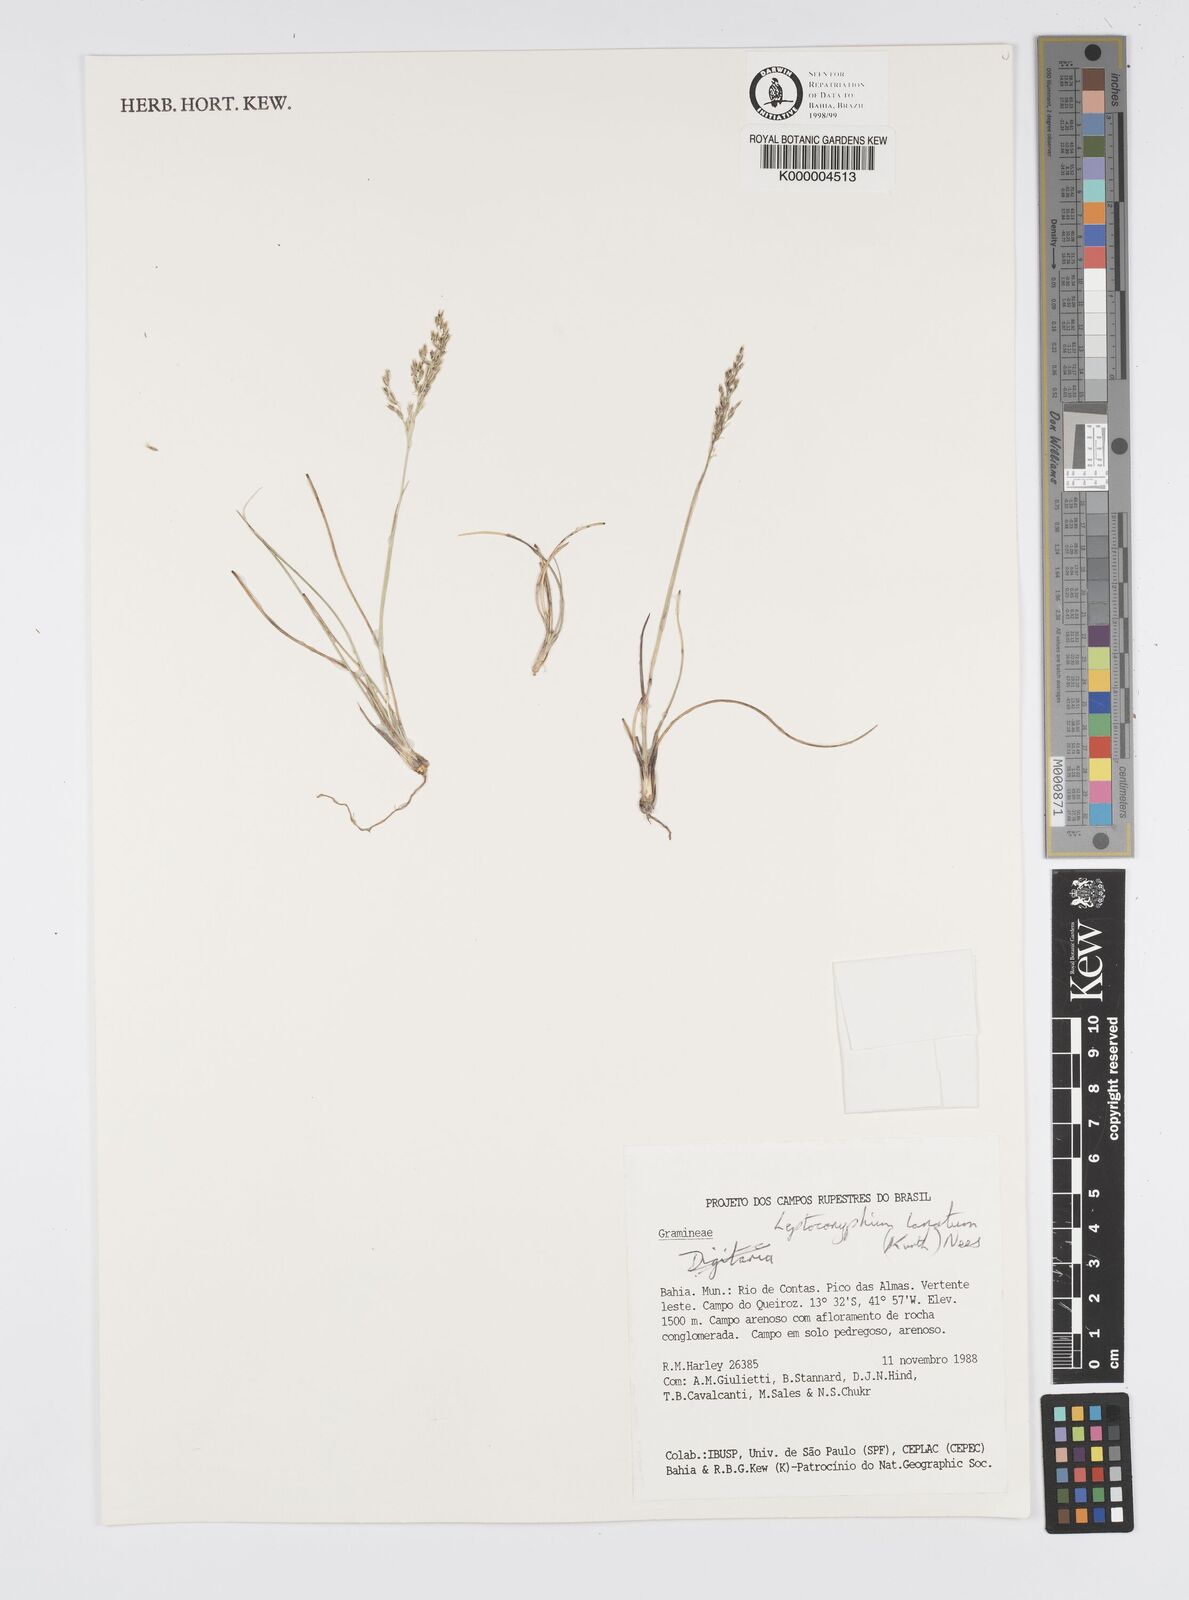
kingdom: Plantae
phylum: Tracheophyta
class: Liliopsida
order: Poales
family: Poaceae
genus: Anthenantia
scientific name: Anthenantia lanata
